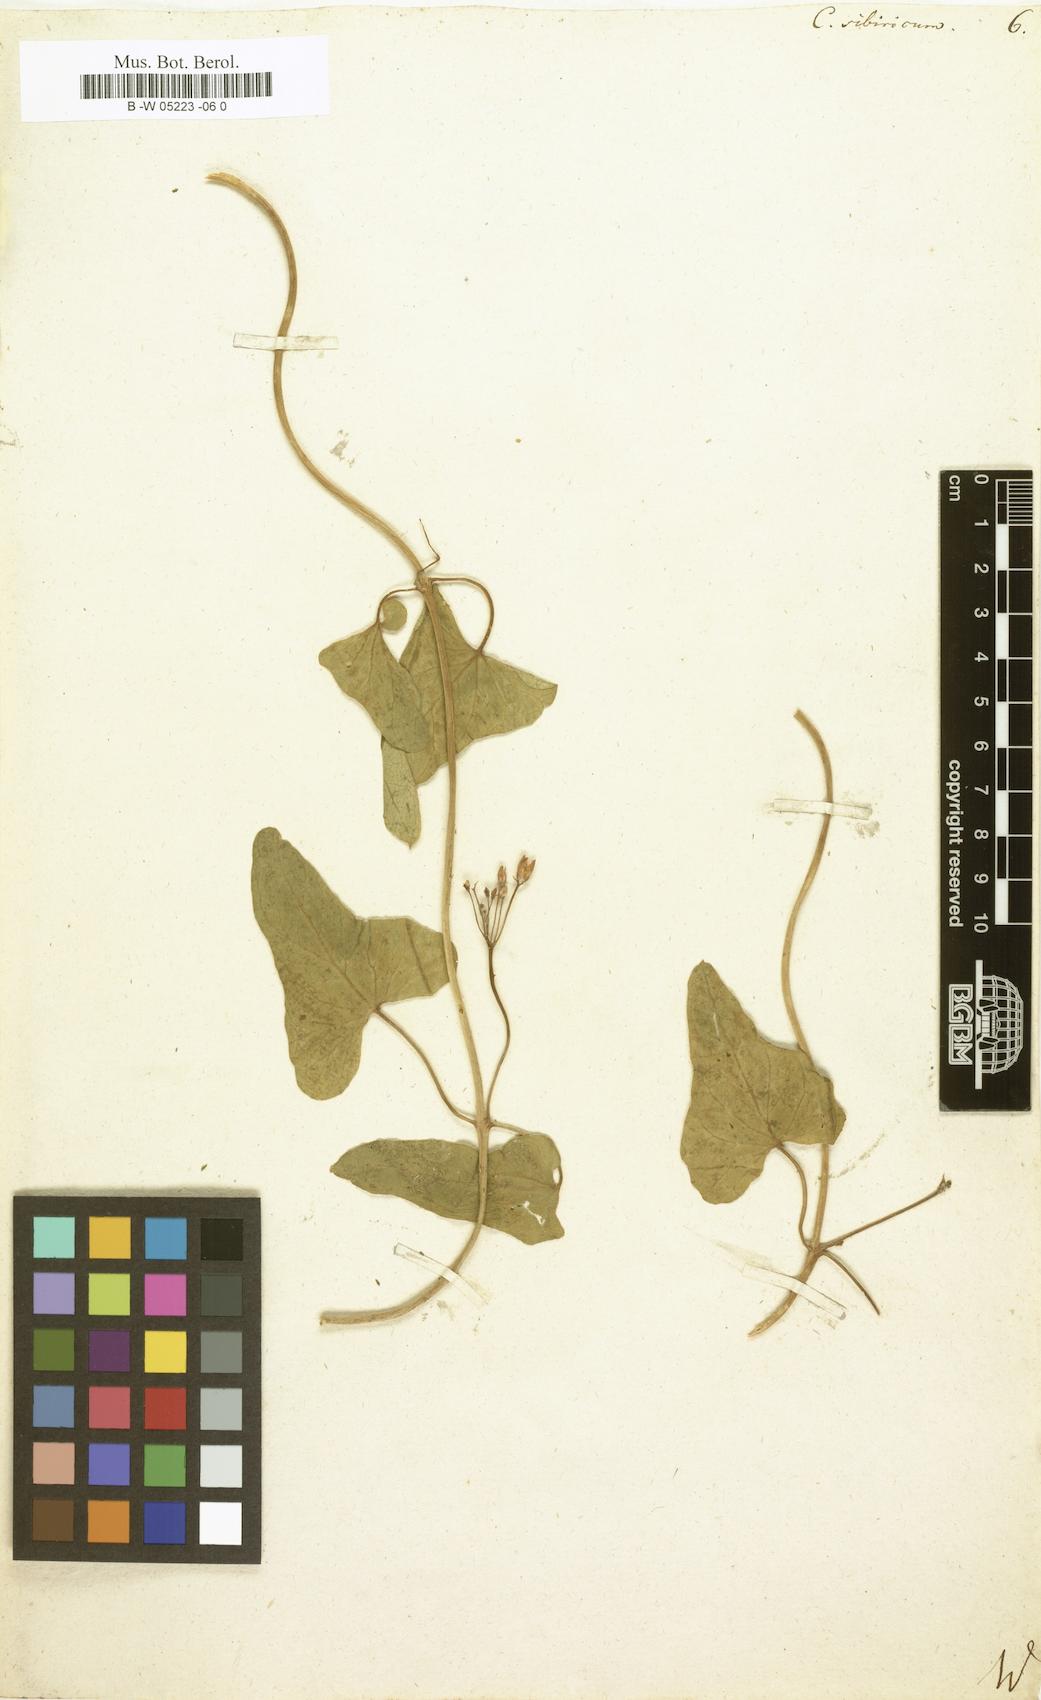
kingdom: Plantae
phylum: Tracheophyta
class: Magnoliopsida
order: Gentianales
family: Apocynaceae
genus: Cynanchum
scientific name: Cynanchum
